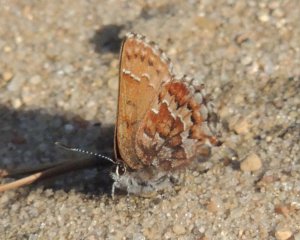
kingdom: Animalia
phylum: Arthropoda
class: Insecta
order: Lepidoptera
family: Lycaenidae
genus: Incisalia
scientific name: Incisalia niphon
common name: Eastern Pine Elfin
